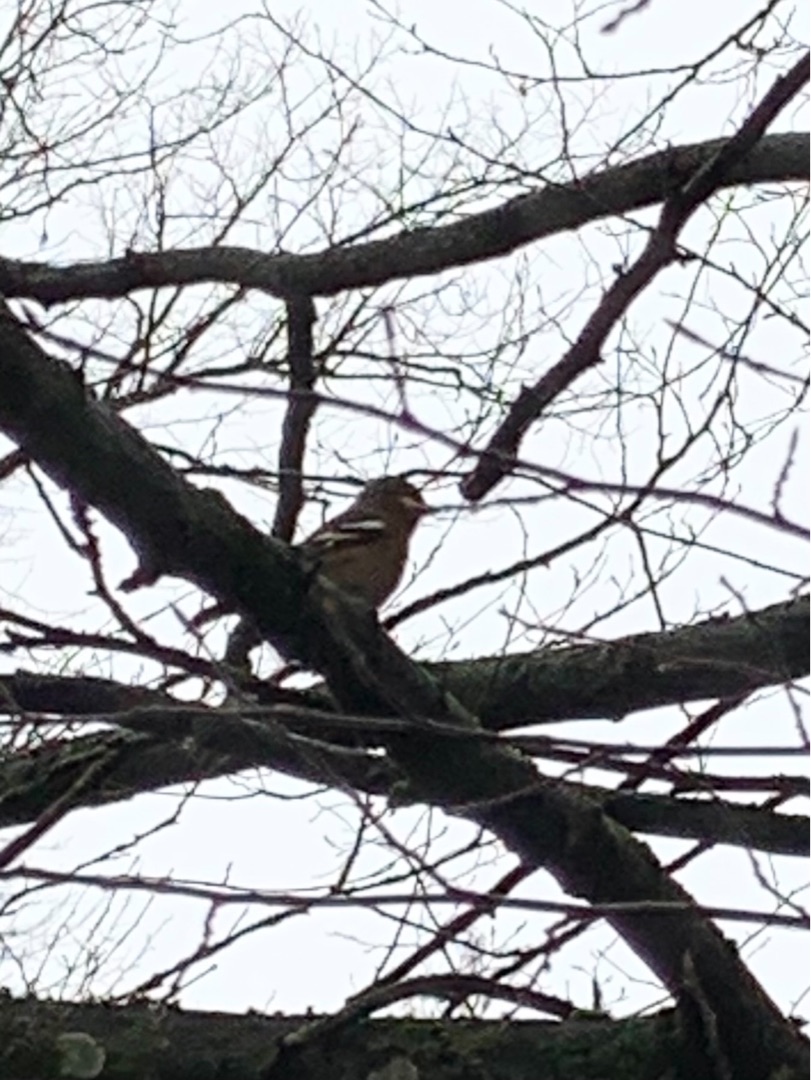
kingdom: Animalia
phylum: Chordata
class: Aves
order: Passeriformes
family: Fringillidae
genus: Fringilla
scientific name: Fringilla coelebs
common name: Bogfinke
